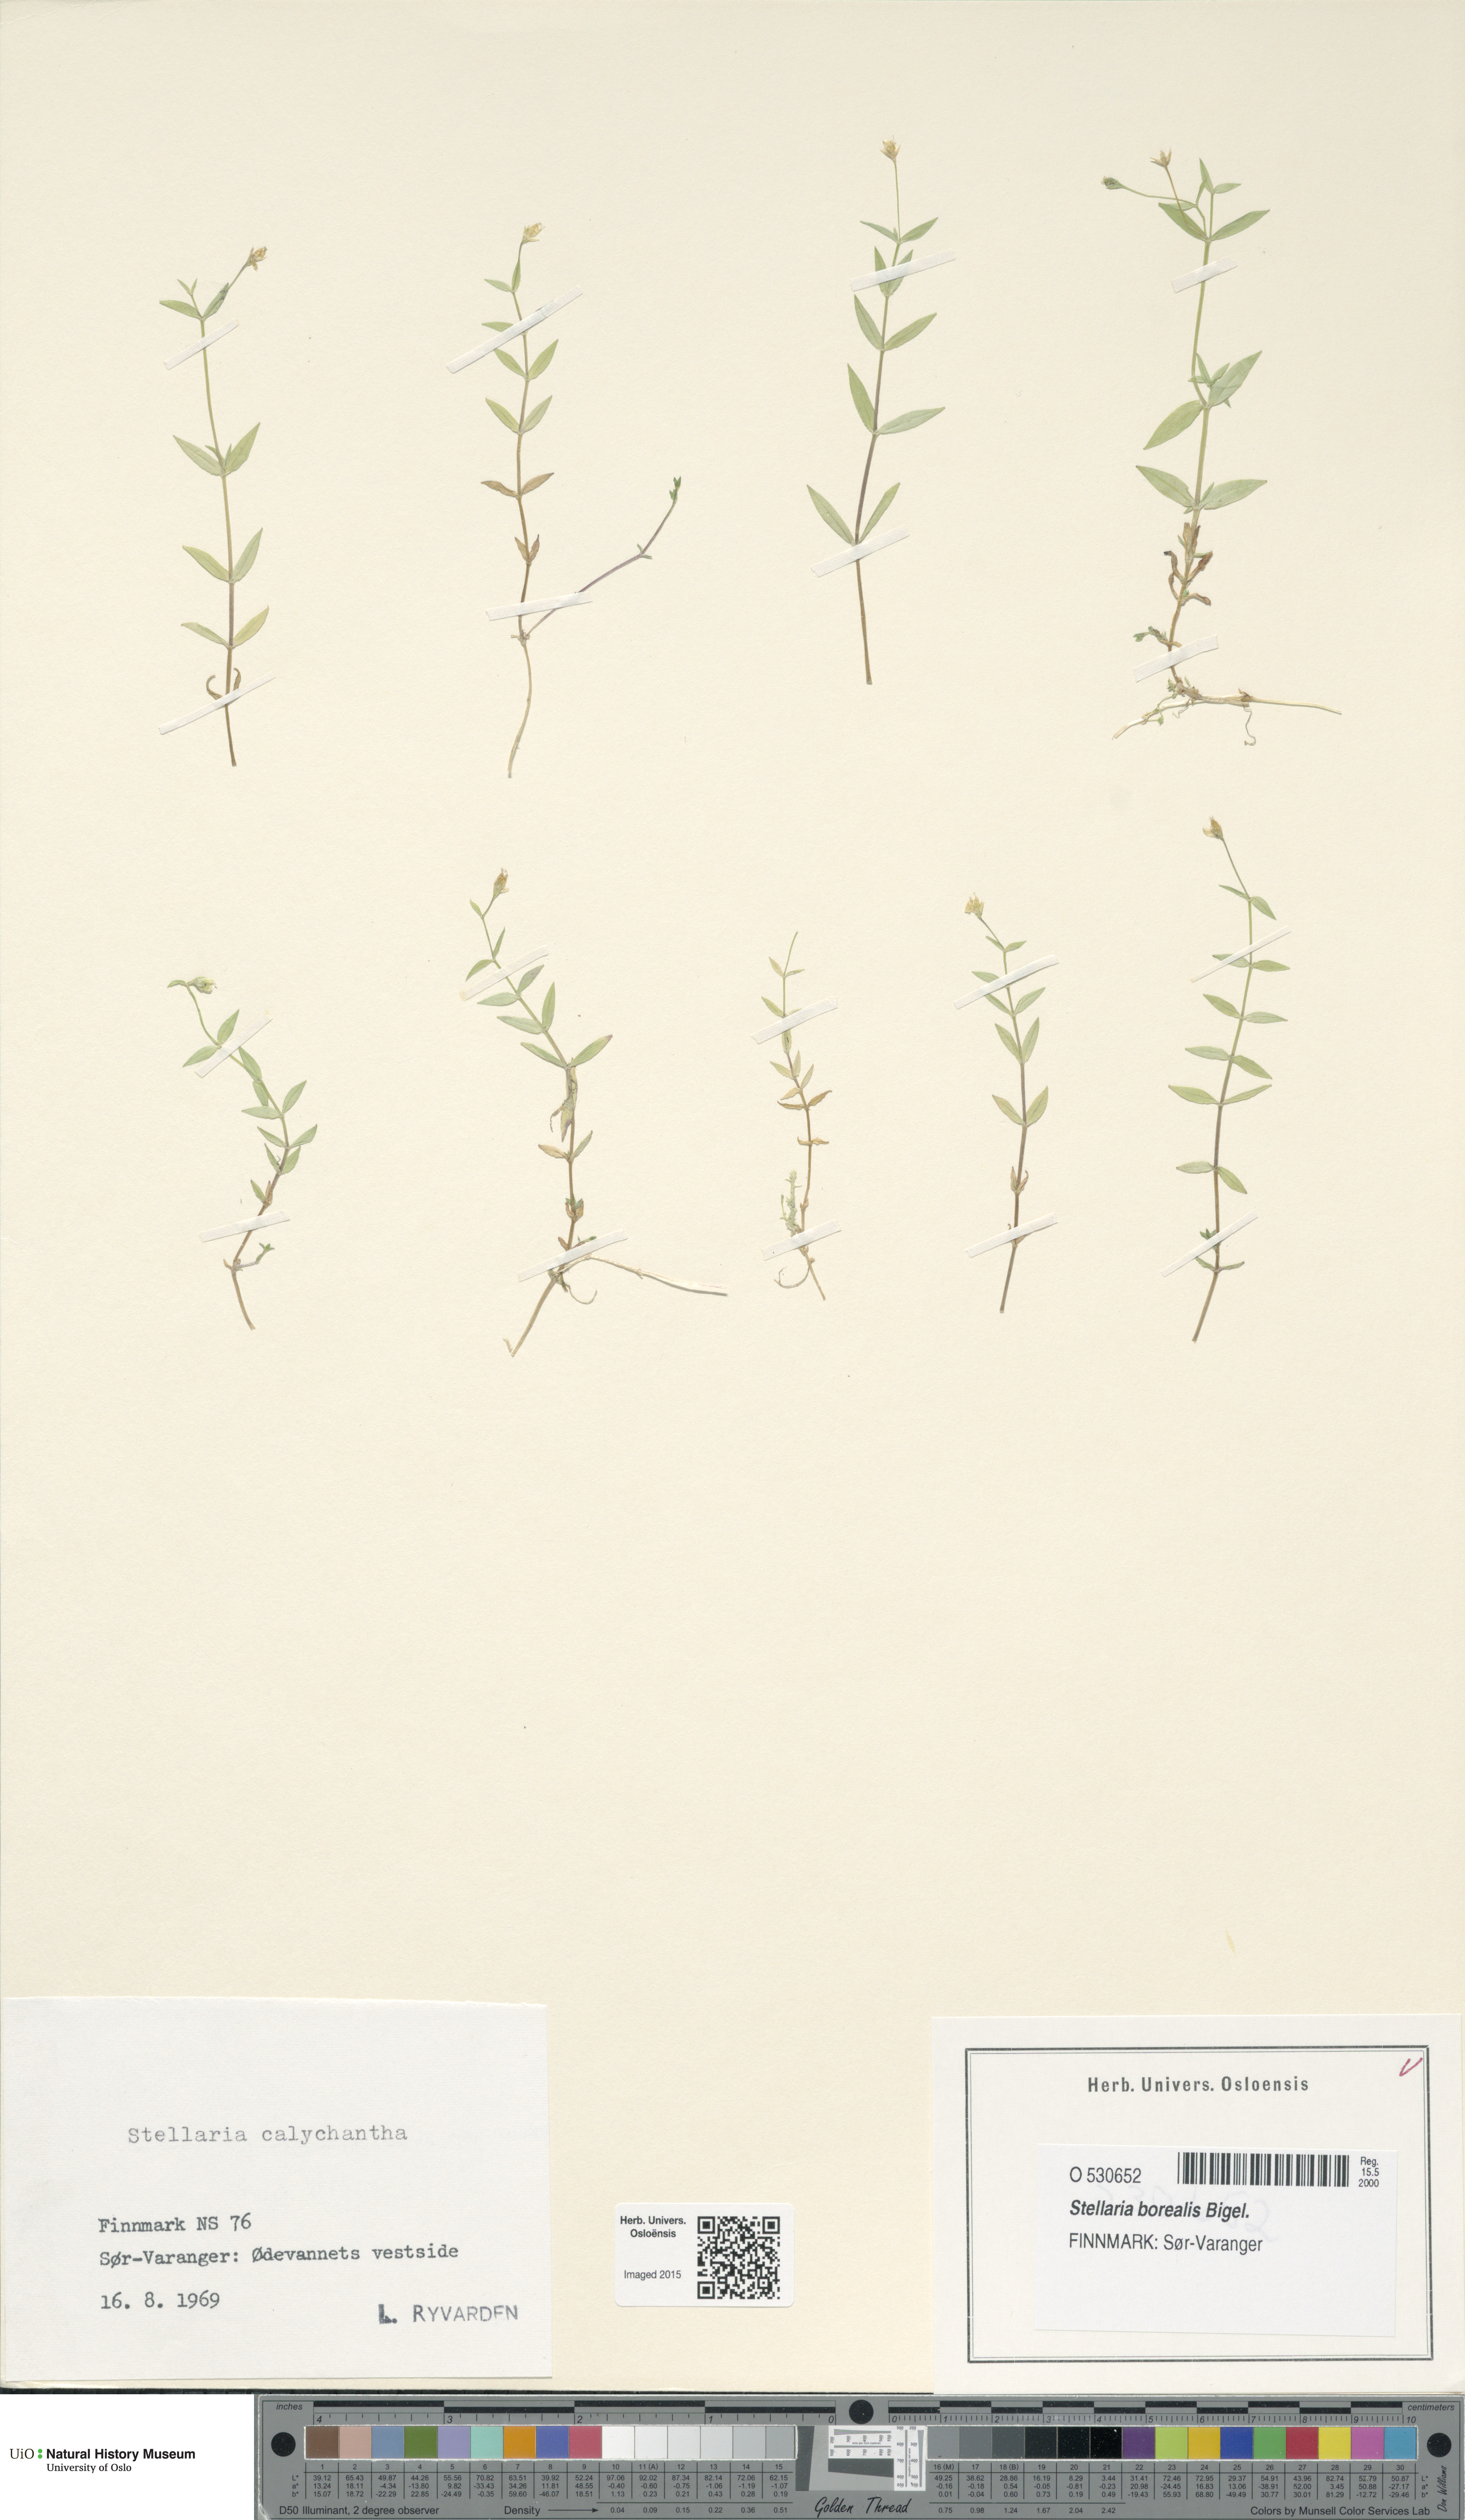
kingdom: Plantae
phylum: Tracheophyta
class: Magnoliopsida
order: Caryophyllales
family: Caryophyllaceae
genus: Stellaria
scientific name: Stellaria borealis
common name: Boreal starwort
